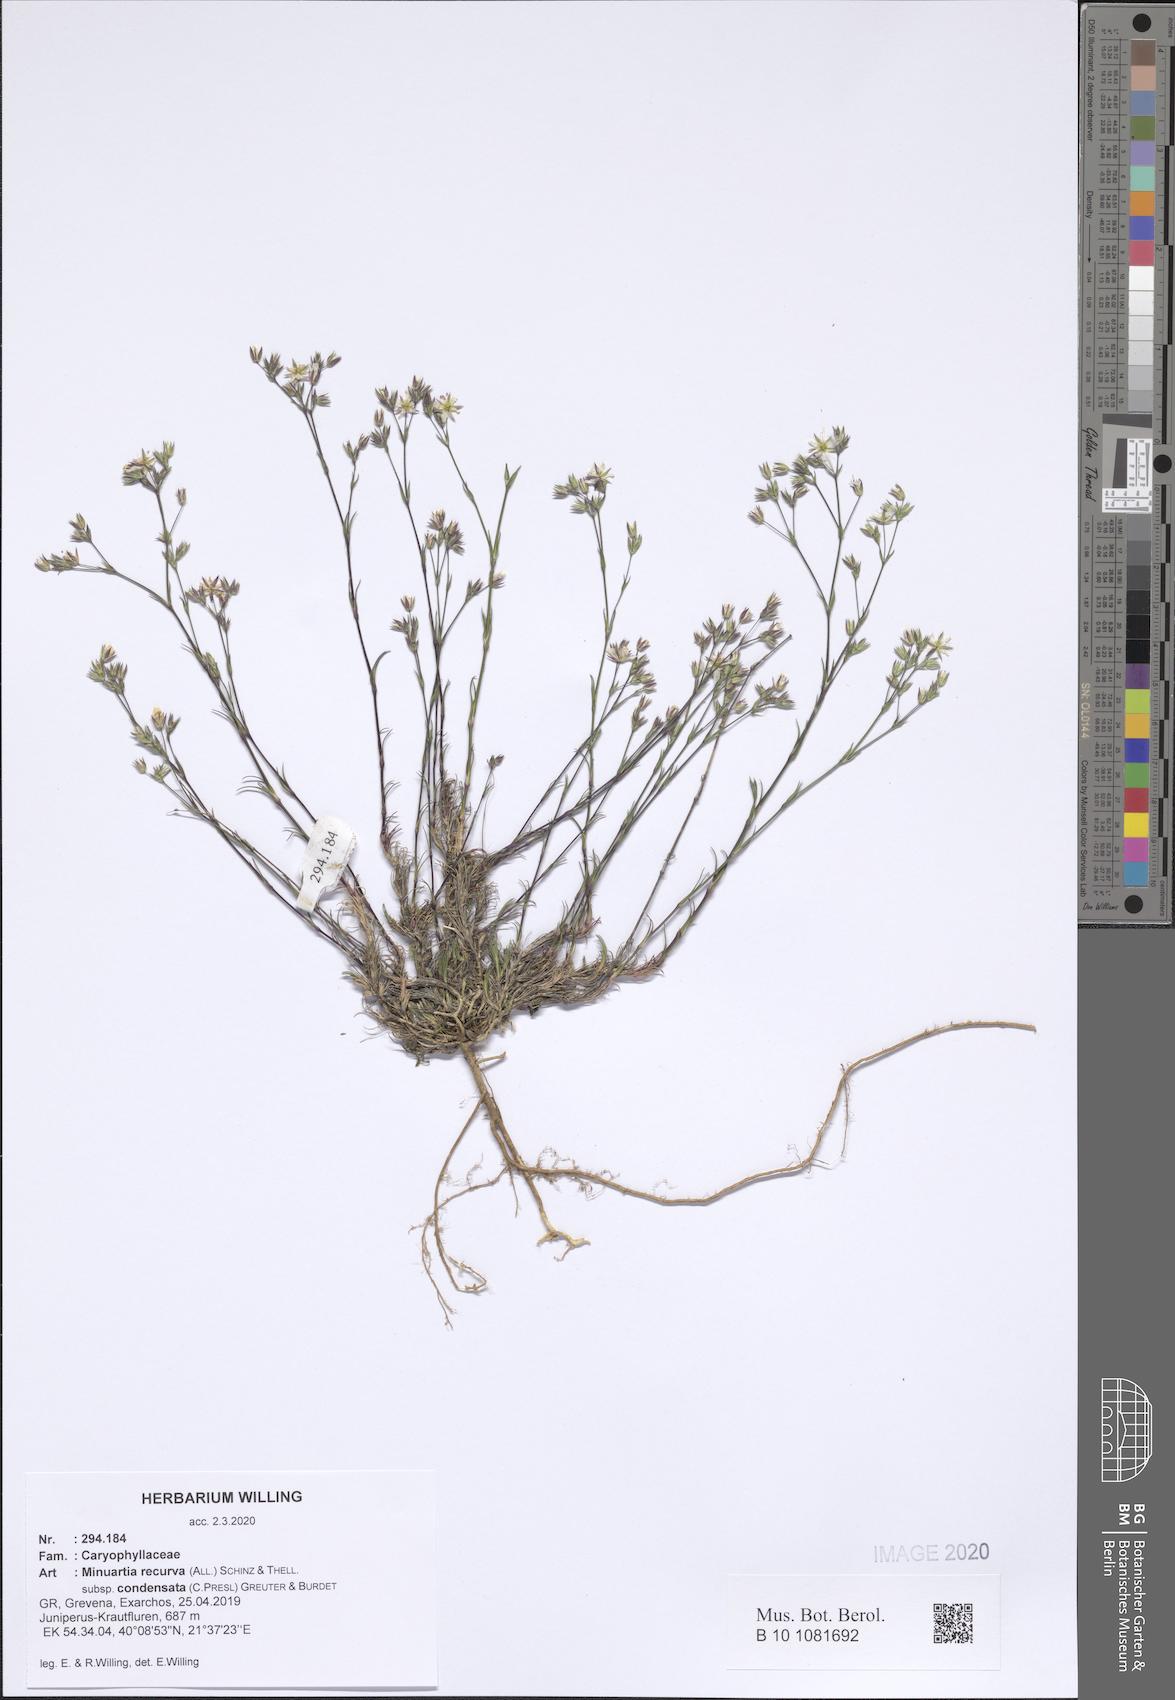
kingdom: Plantae
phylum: Tracheophyta
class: Magnoliopsida
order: Caryophyllales
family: Caryophyllaceae
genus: Minuartia
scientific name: Minuartia recurva
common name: Recurved sandwort
